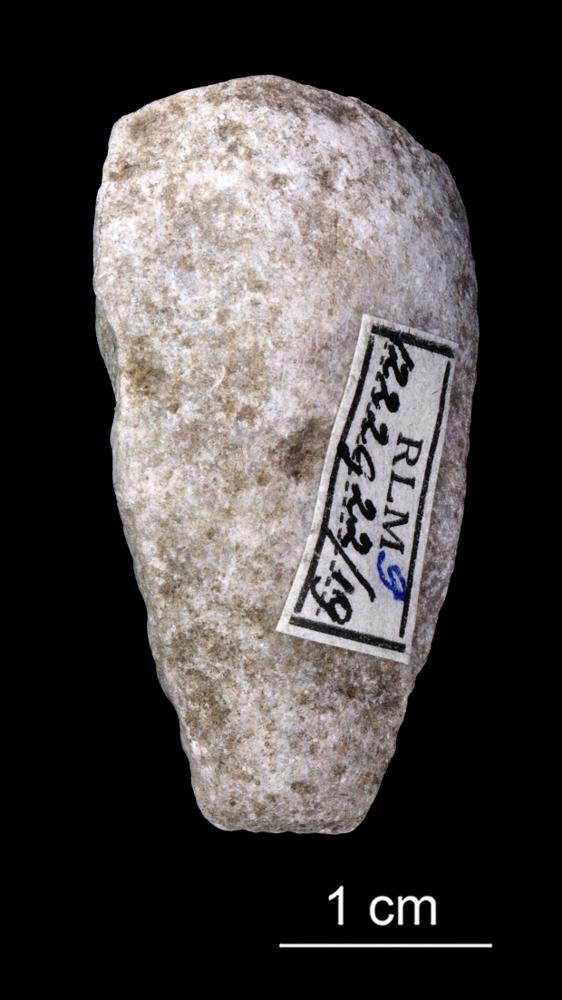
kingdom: Animalia
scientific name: Animalia
